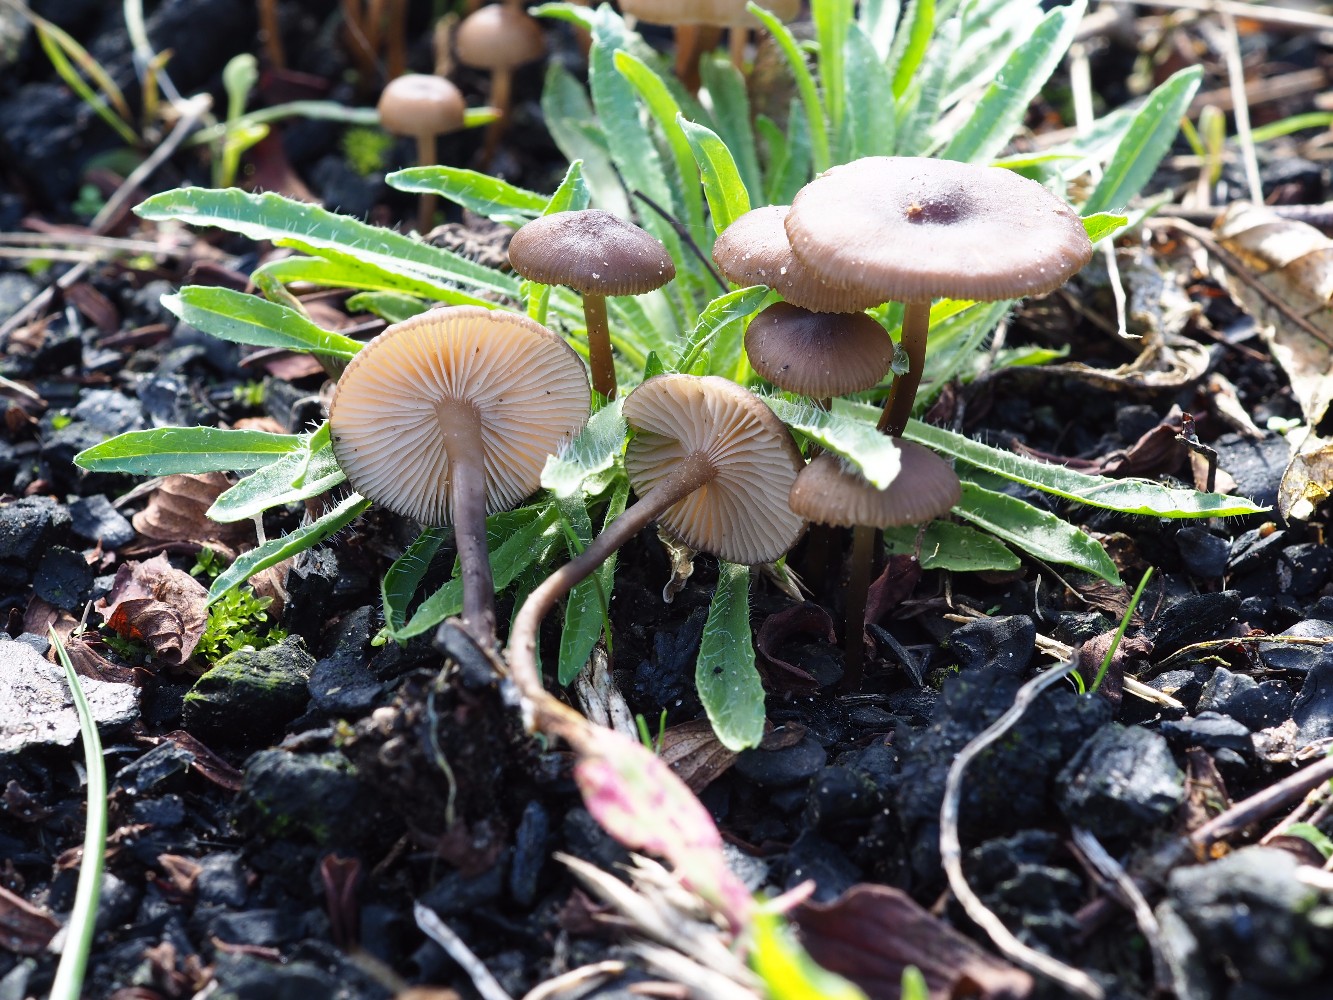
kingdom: Fungi
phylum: Basidiomycota
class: Agaricomycetes
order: Agaricales
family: Lyophyllaceae
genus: Tephrocybe
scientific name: Tephrocybe ambusta
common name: kul-gråblad
